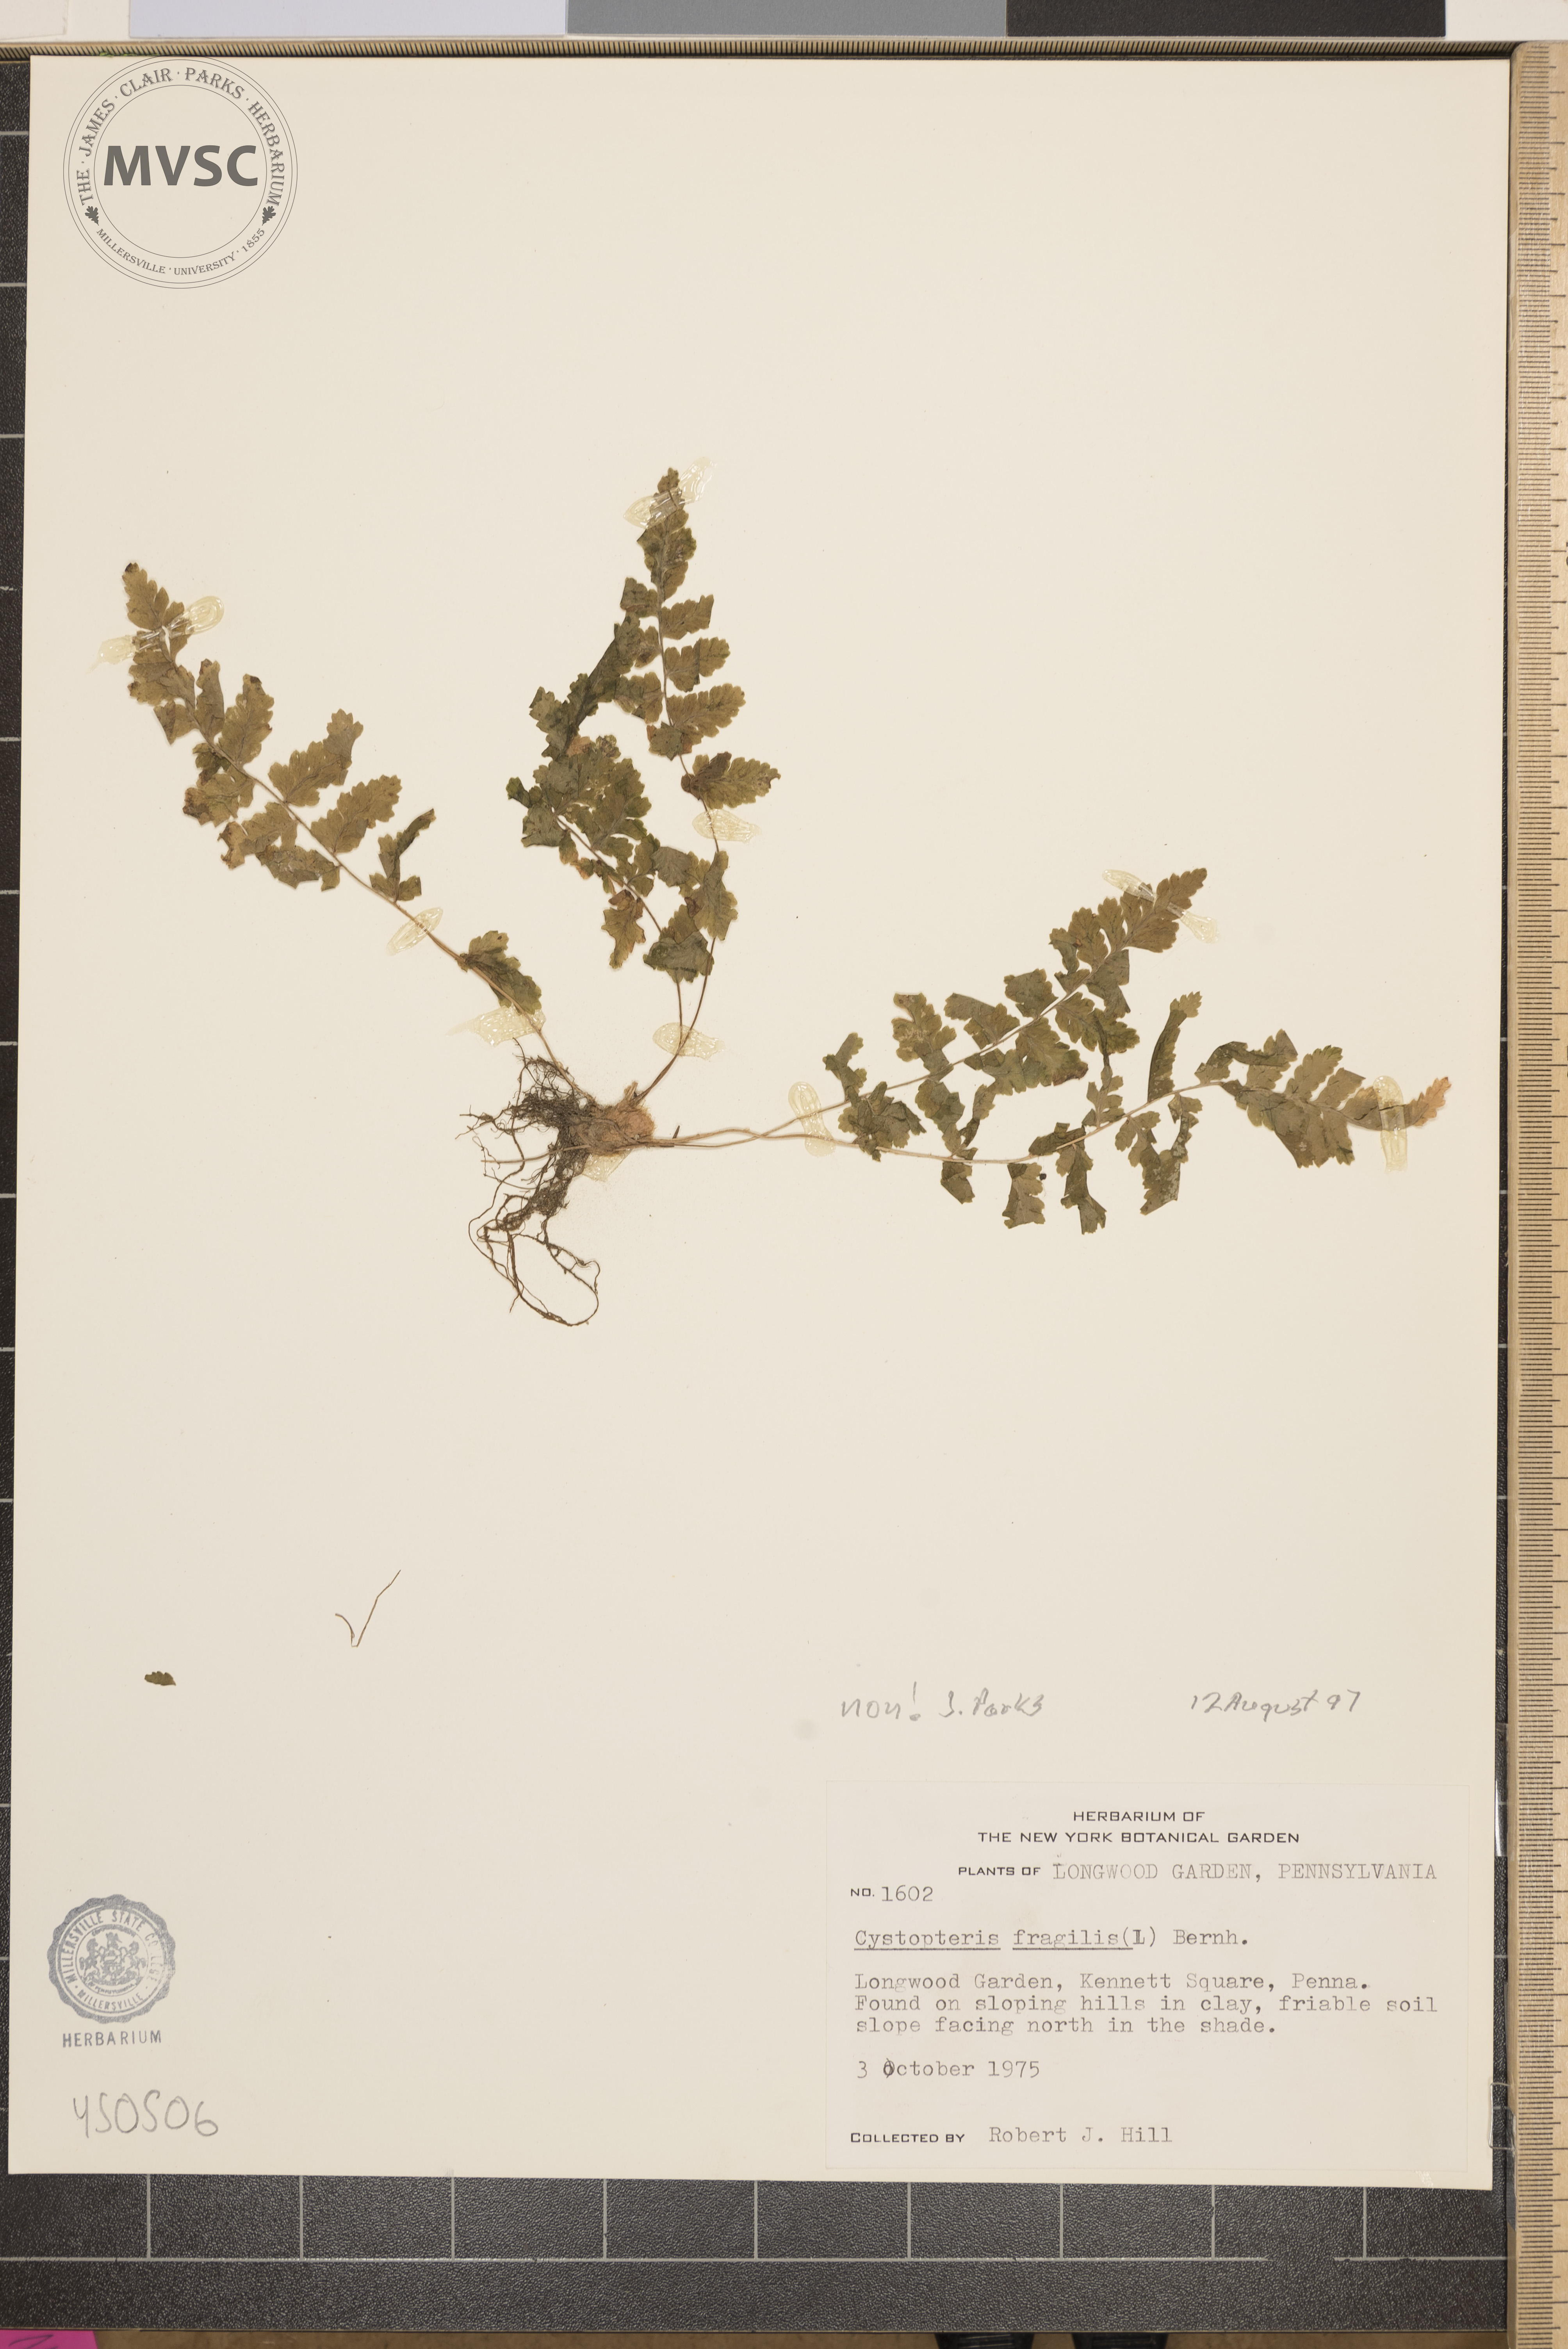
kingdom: Plantae
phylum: Tracheophyta
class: Polypodiopsida
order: Polypodiales
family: Cystopteridaceae
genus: Cystopteris
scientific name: Cystopteris
